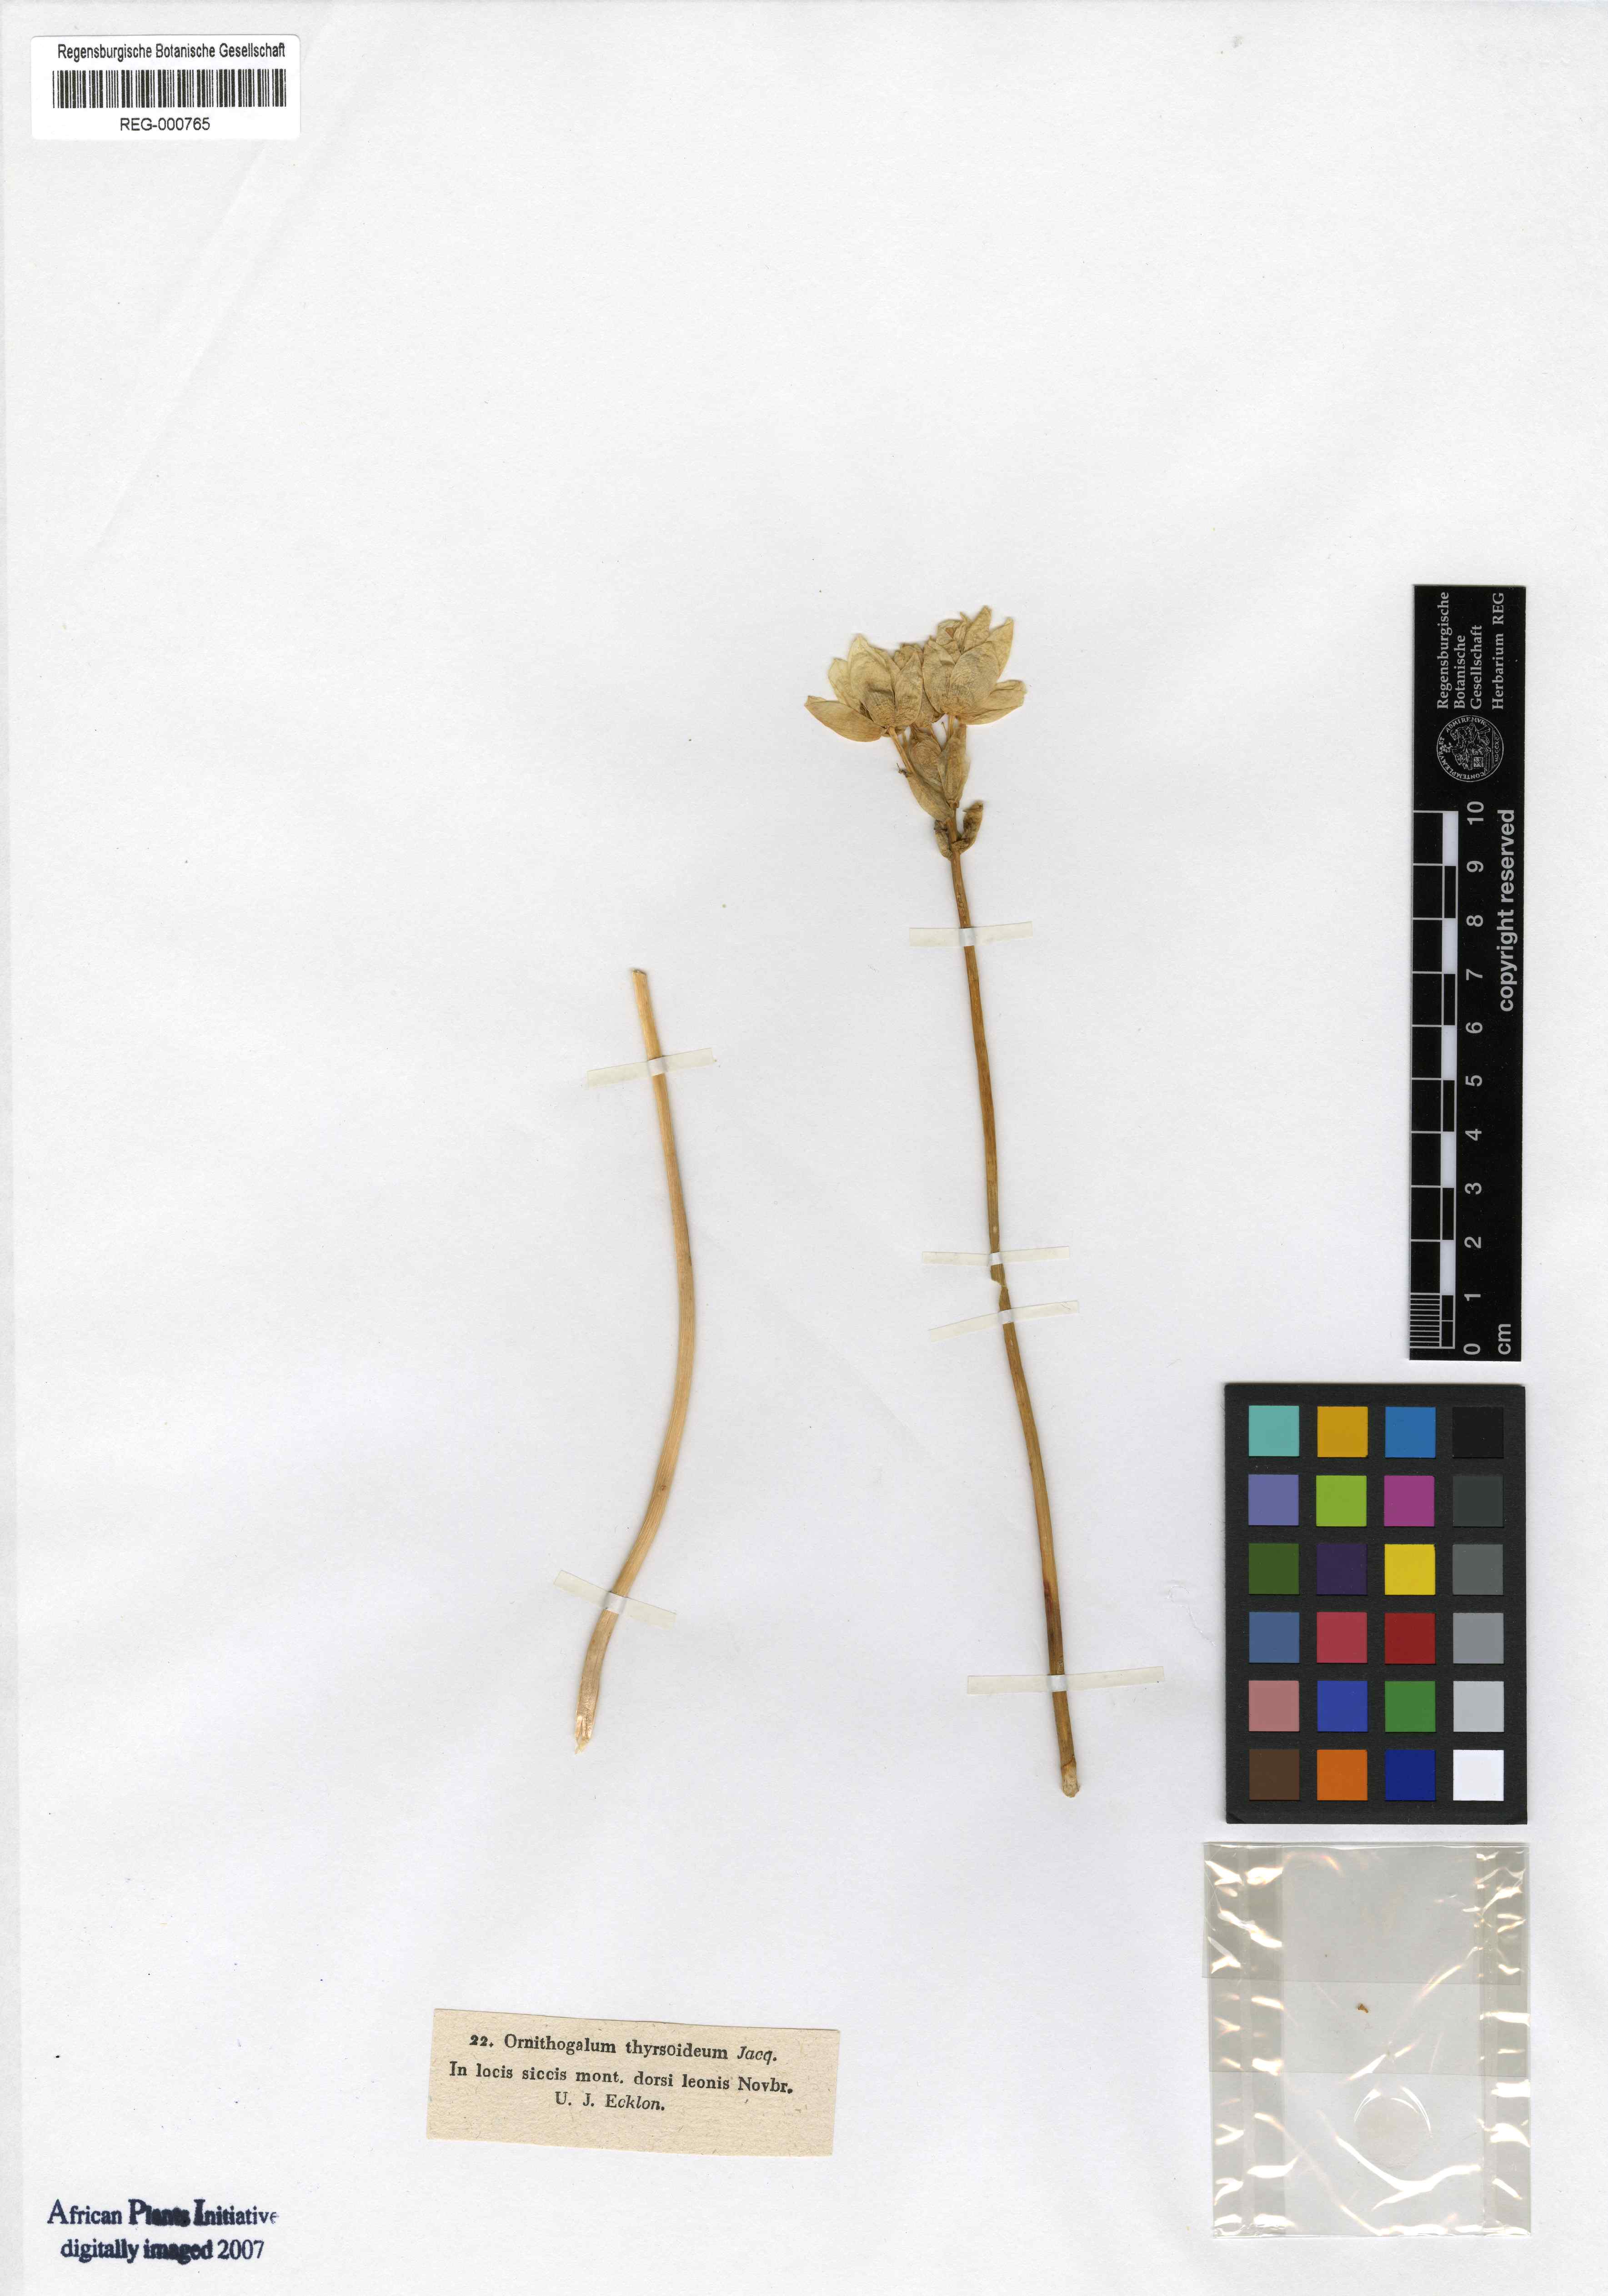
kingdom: Plantae
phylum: Tracheophyta
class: Liliopsida
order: Asparagales
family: Asparagaceae
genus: Ornithogalum
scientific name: Ornithogalum thyrsoides
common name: Chincherinchee
